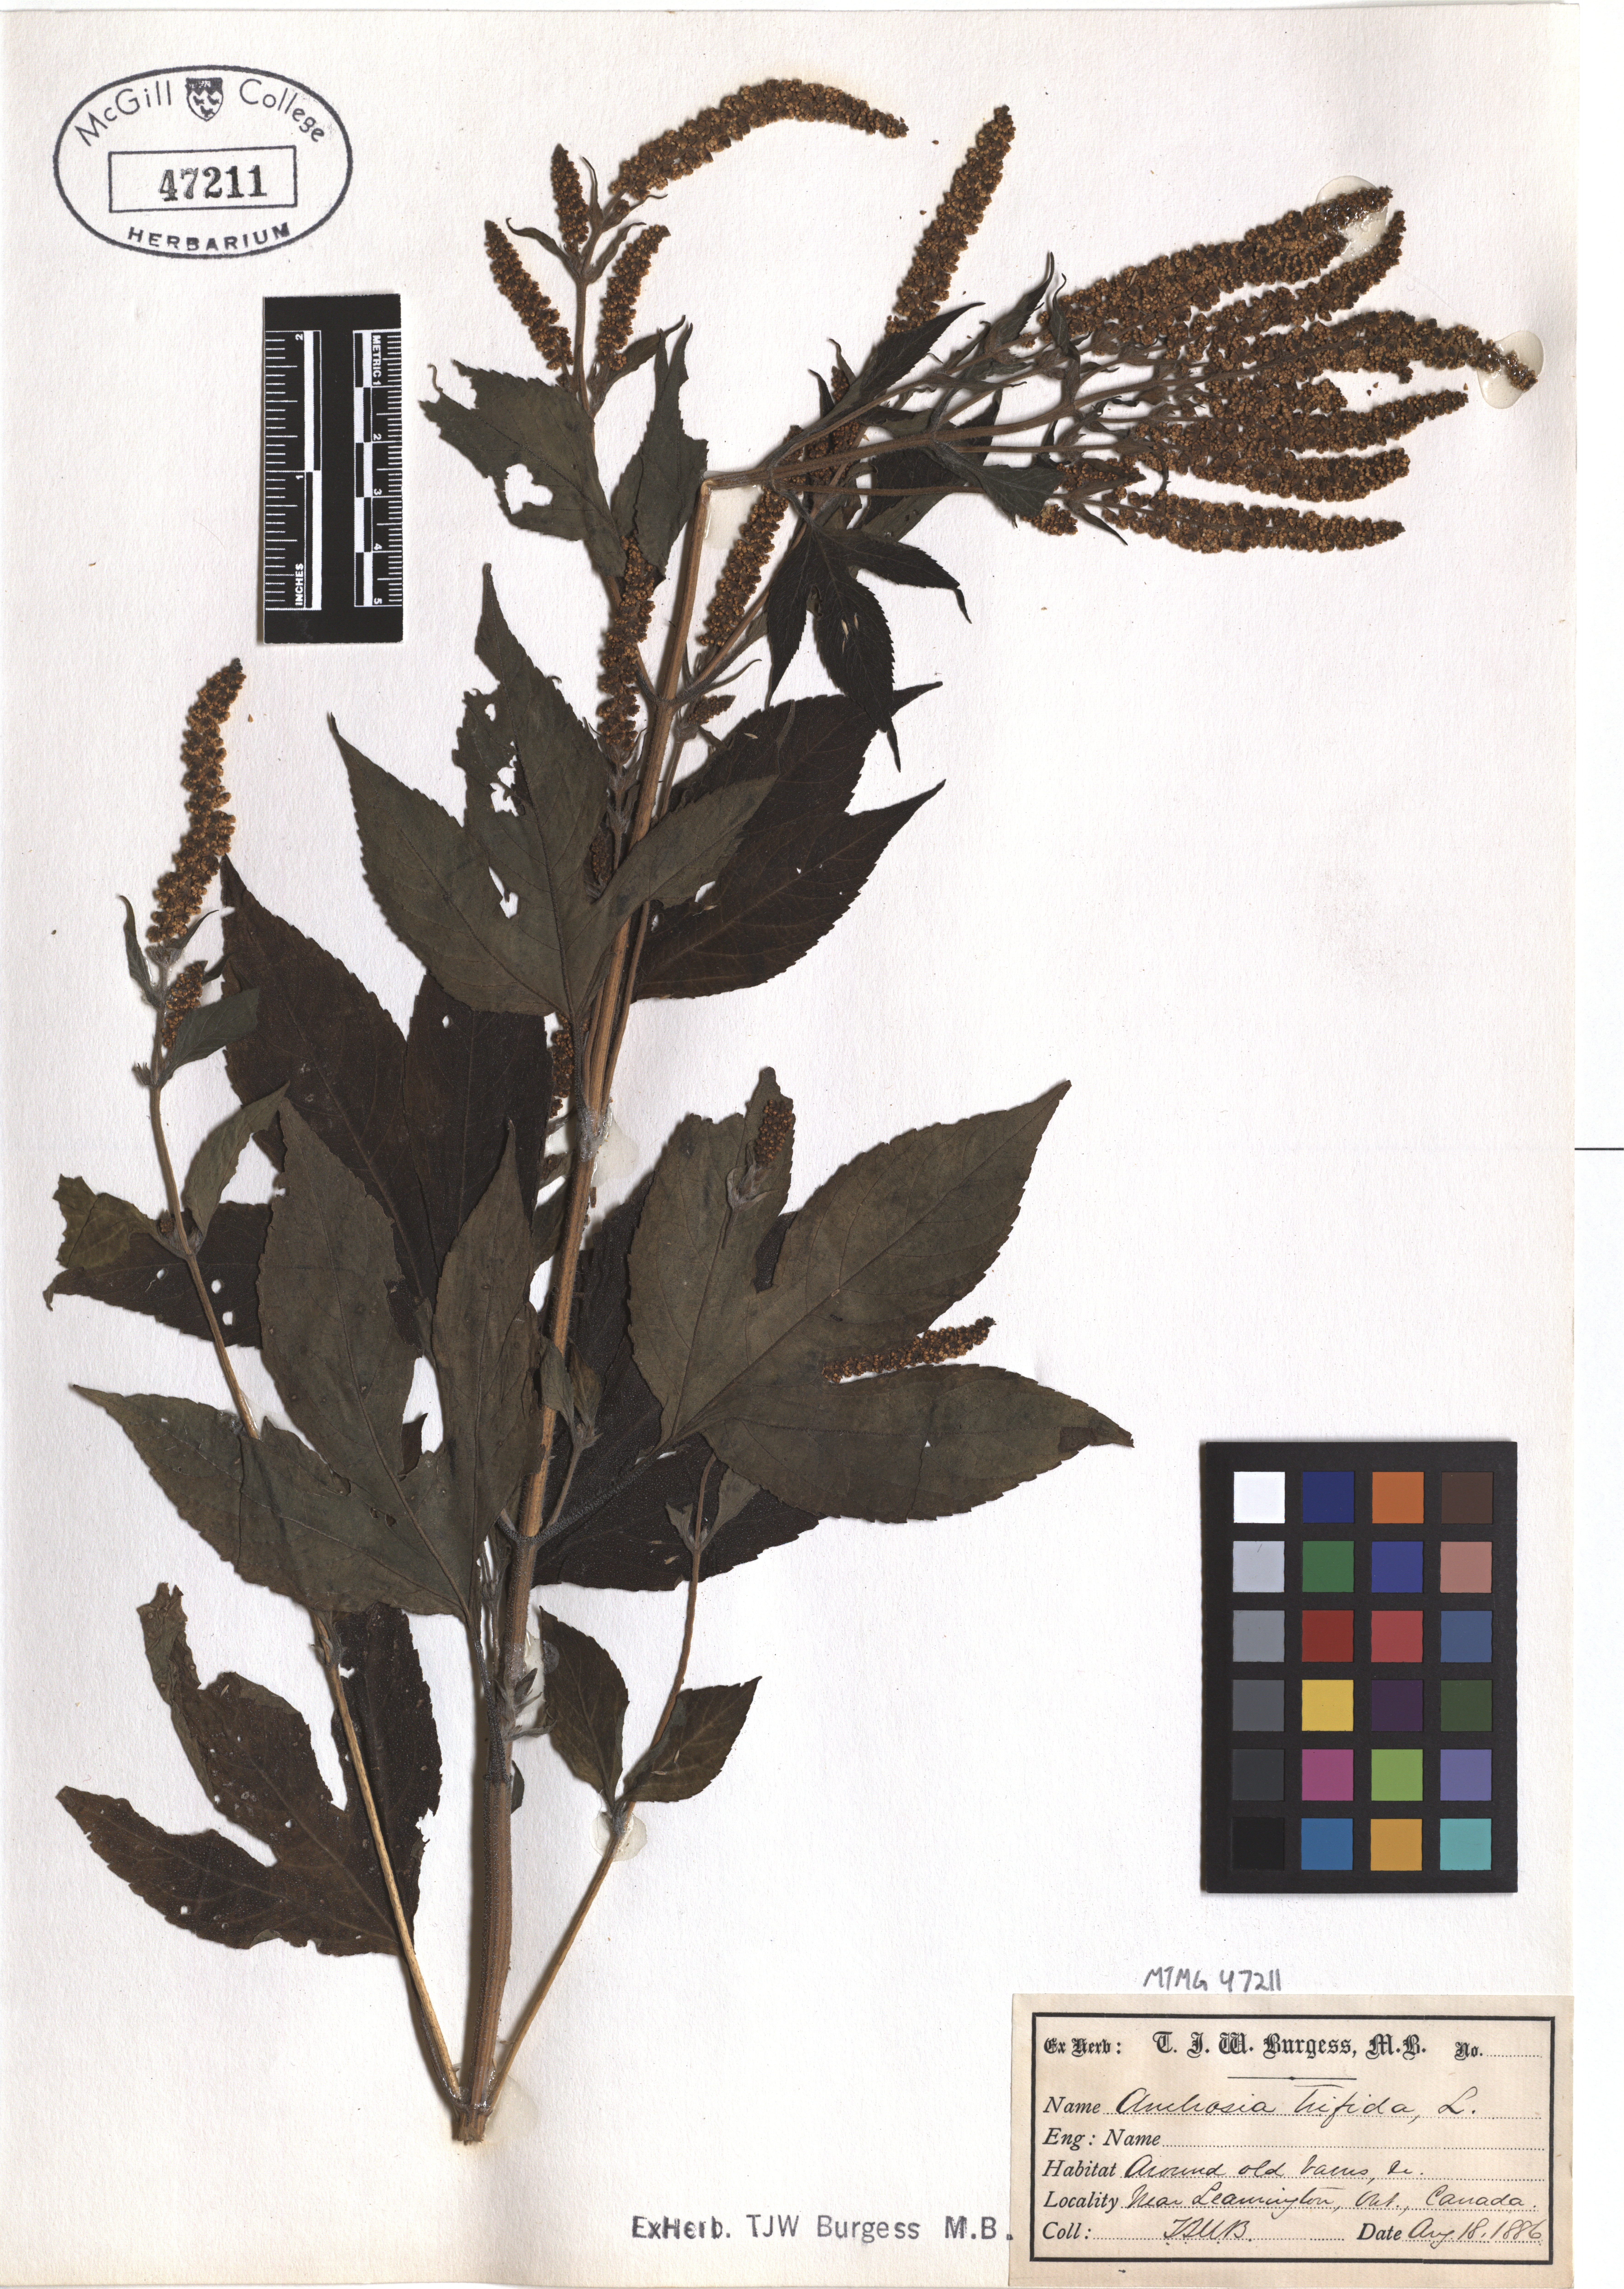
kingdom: Plantae
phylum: Tracheophyta
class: Magnoliopsida
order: Asterales
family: Asteraceae
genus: Ambrosia
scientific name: Ambrosia trifida
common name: Giant ragweed
